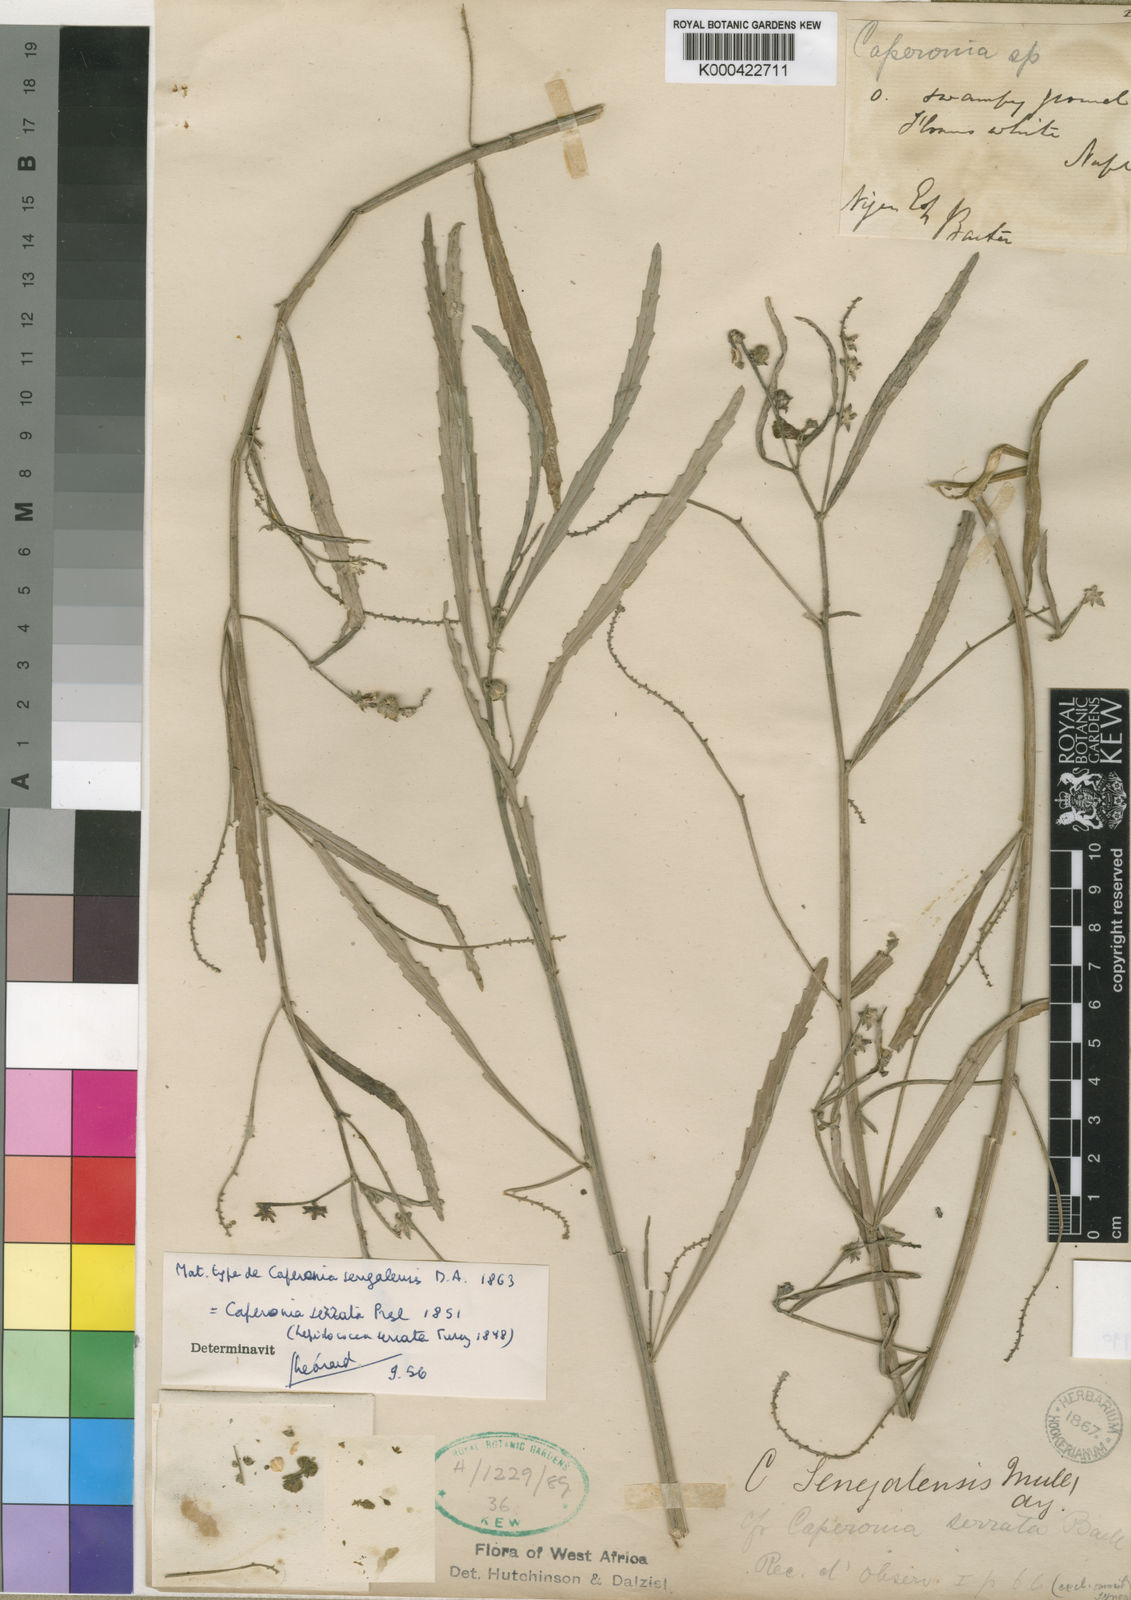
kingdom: Plantae
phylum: Tracheophyta
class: Magnoliopsida
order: Malpighiales
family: Euphorbiaceae
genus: Caperonia
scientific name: Caperonia serrata
